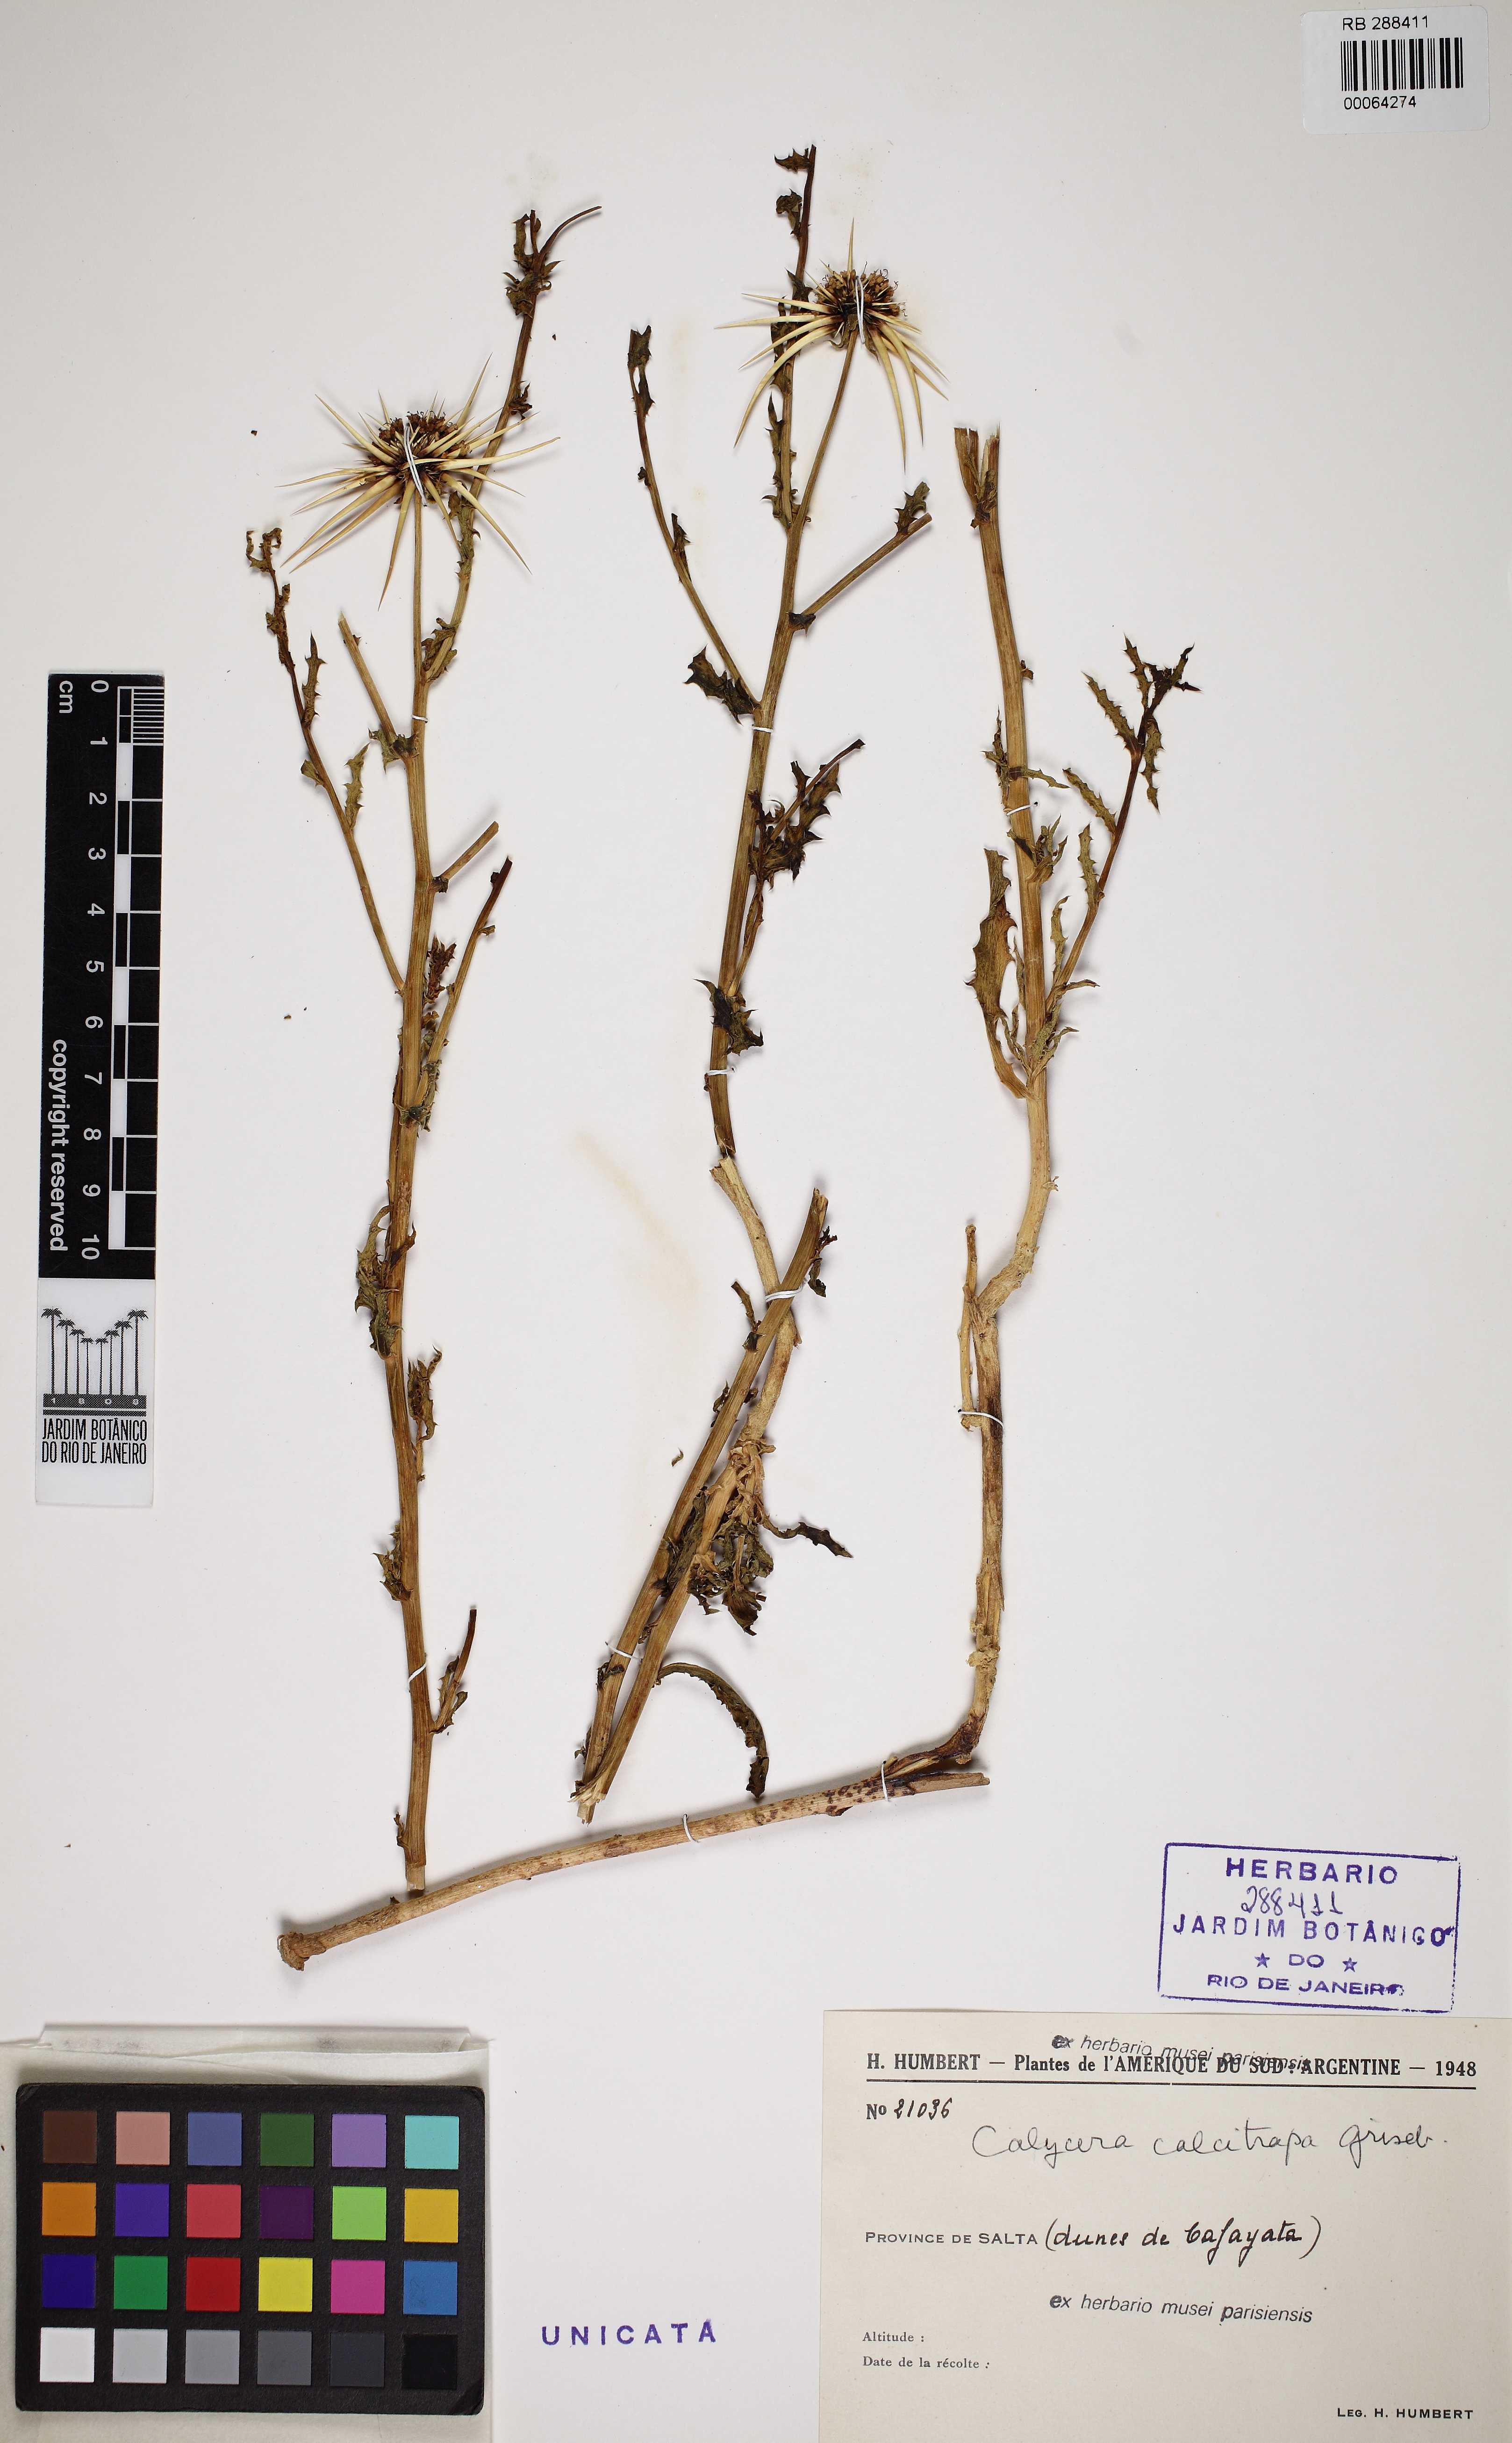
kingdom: Plantae
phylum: Tracheophyta
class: Magnoliopsida
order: Asterales
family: Calyceraceae
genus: Calycera
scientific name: Calycera calcitrapa
